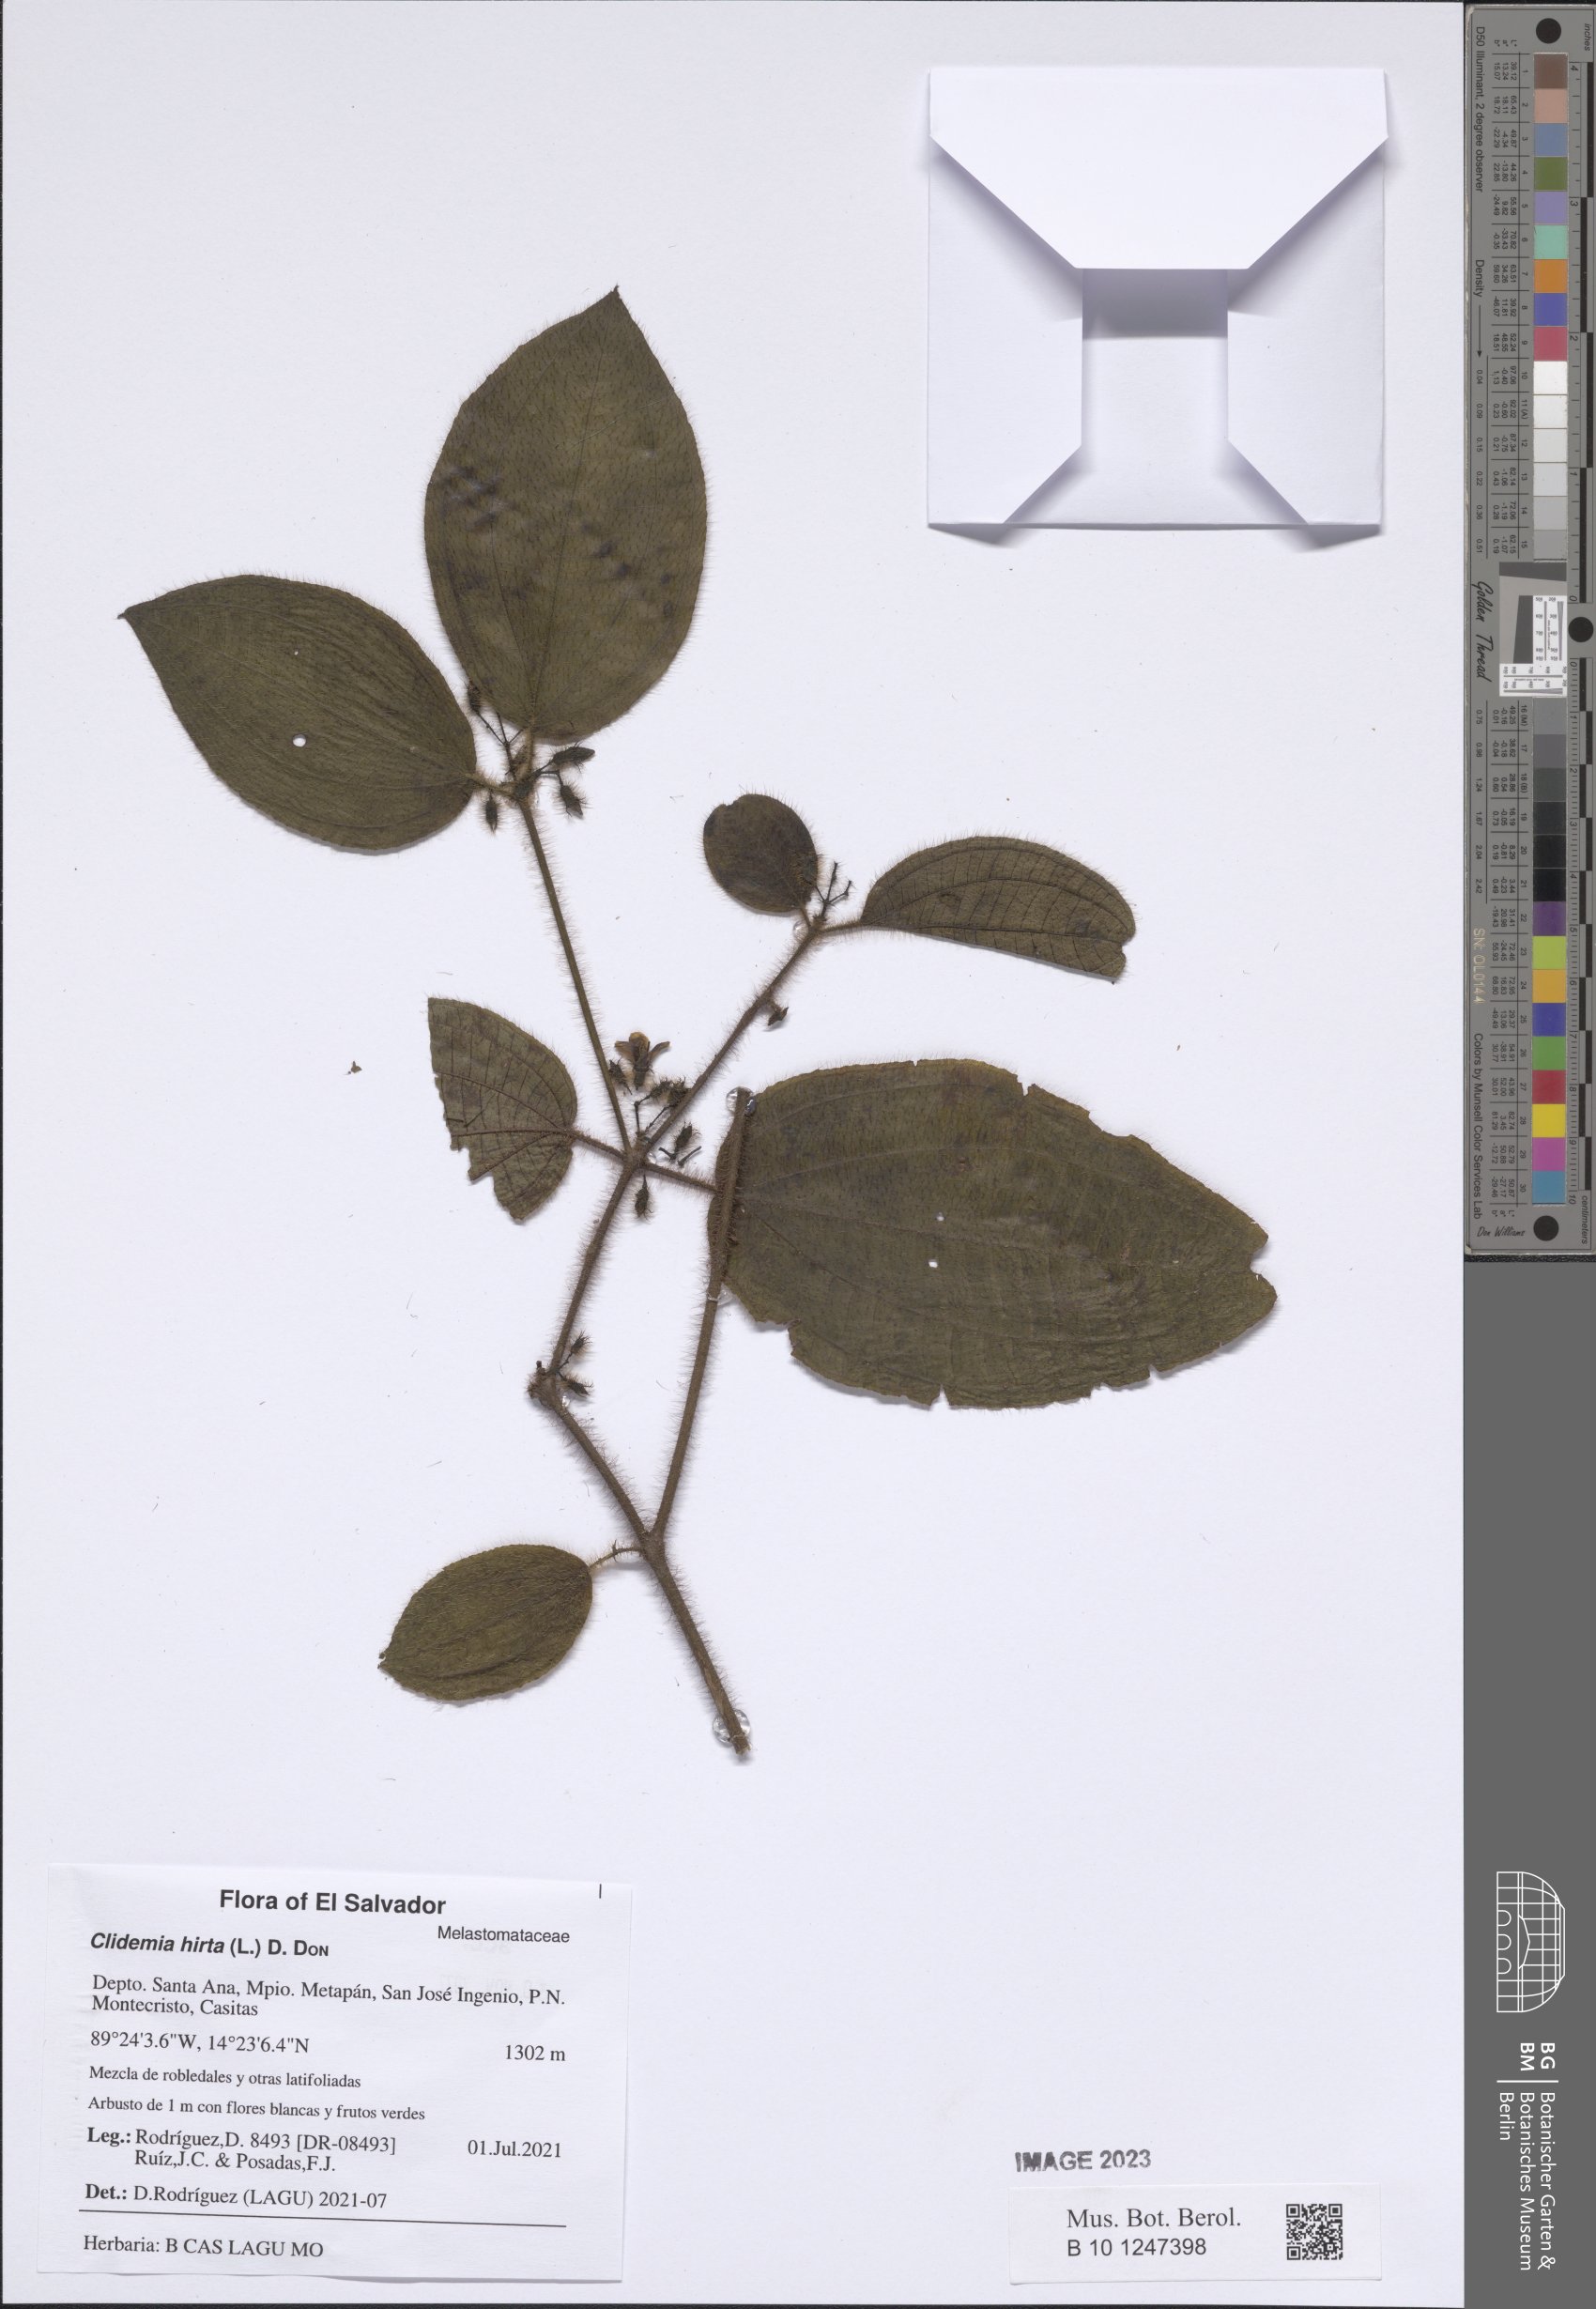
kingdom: Plantae
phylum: Tracheophyta
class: Magnoliopsida
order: Myrtales
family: Melastomataceae
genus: Miconia
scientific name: Miconia crenata
